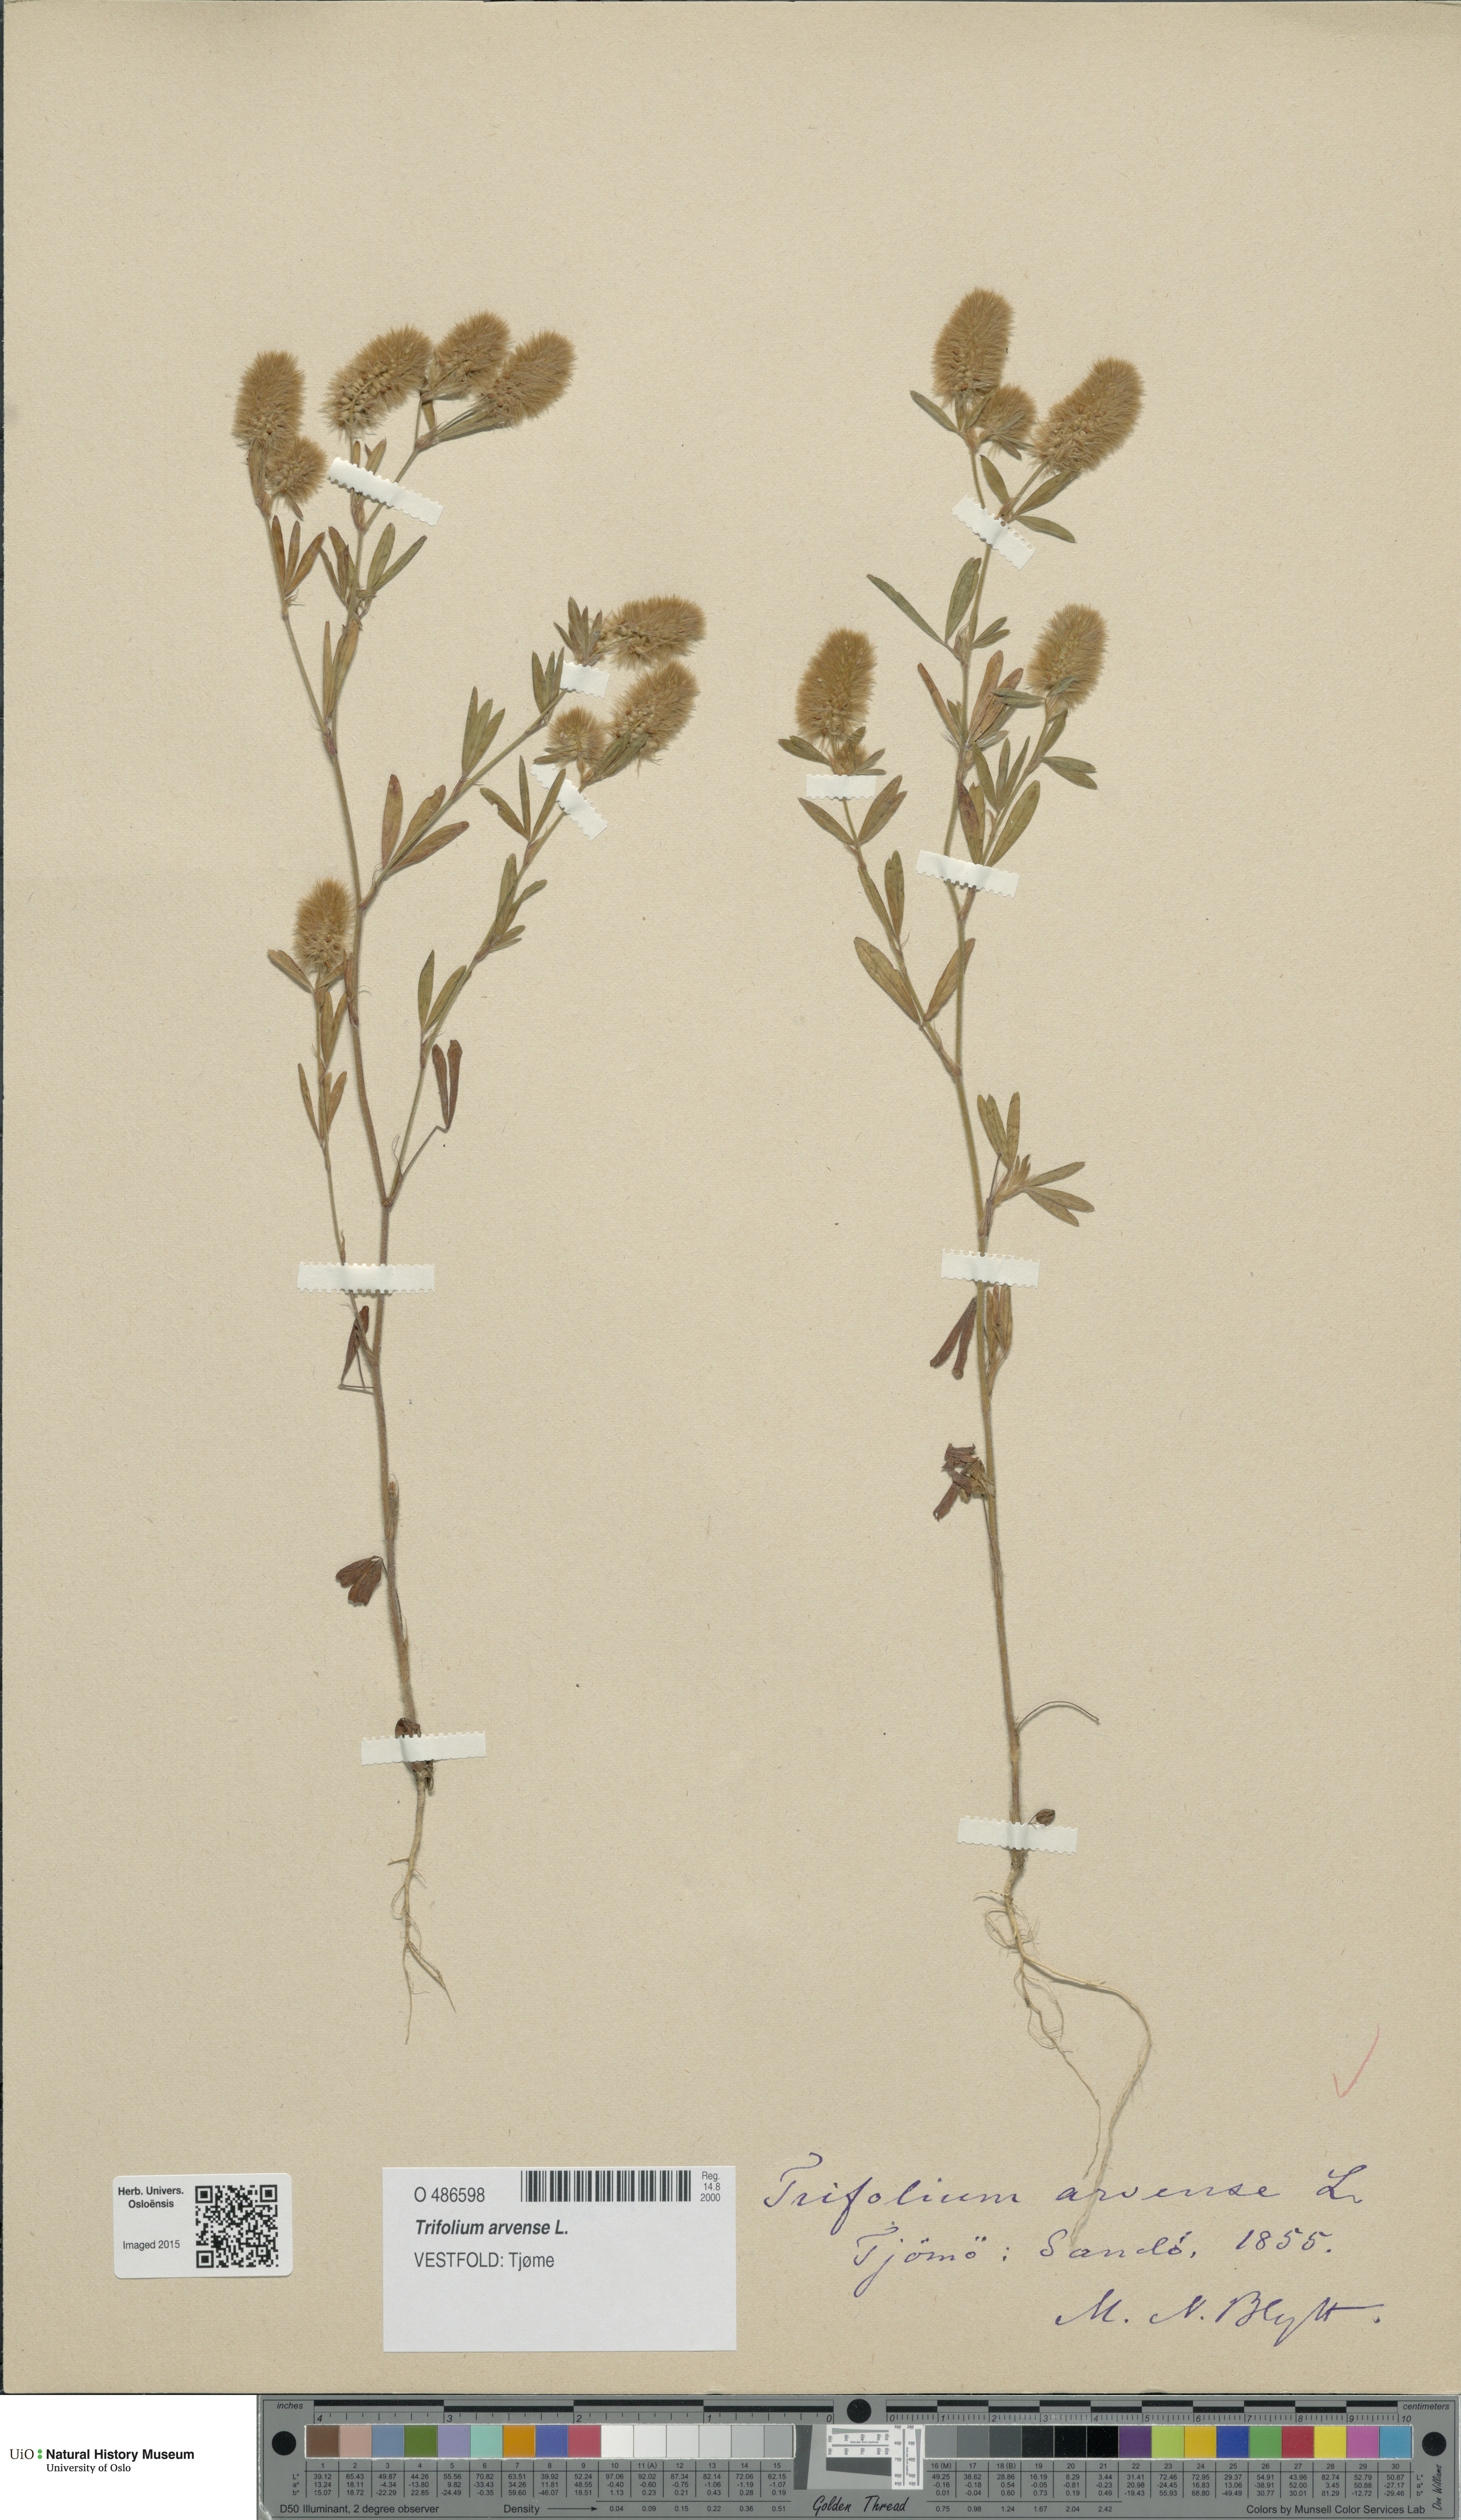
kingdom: Plantae
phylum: Tracheophyta
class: Magnoliopsida
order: Fabales
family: Fabaceae
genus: Trifolium
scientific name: Trifolium arvense
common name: Hare's-foot clover
